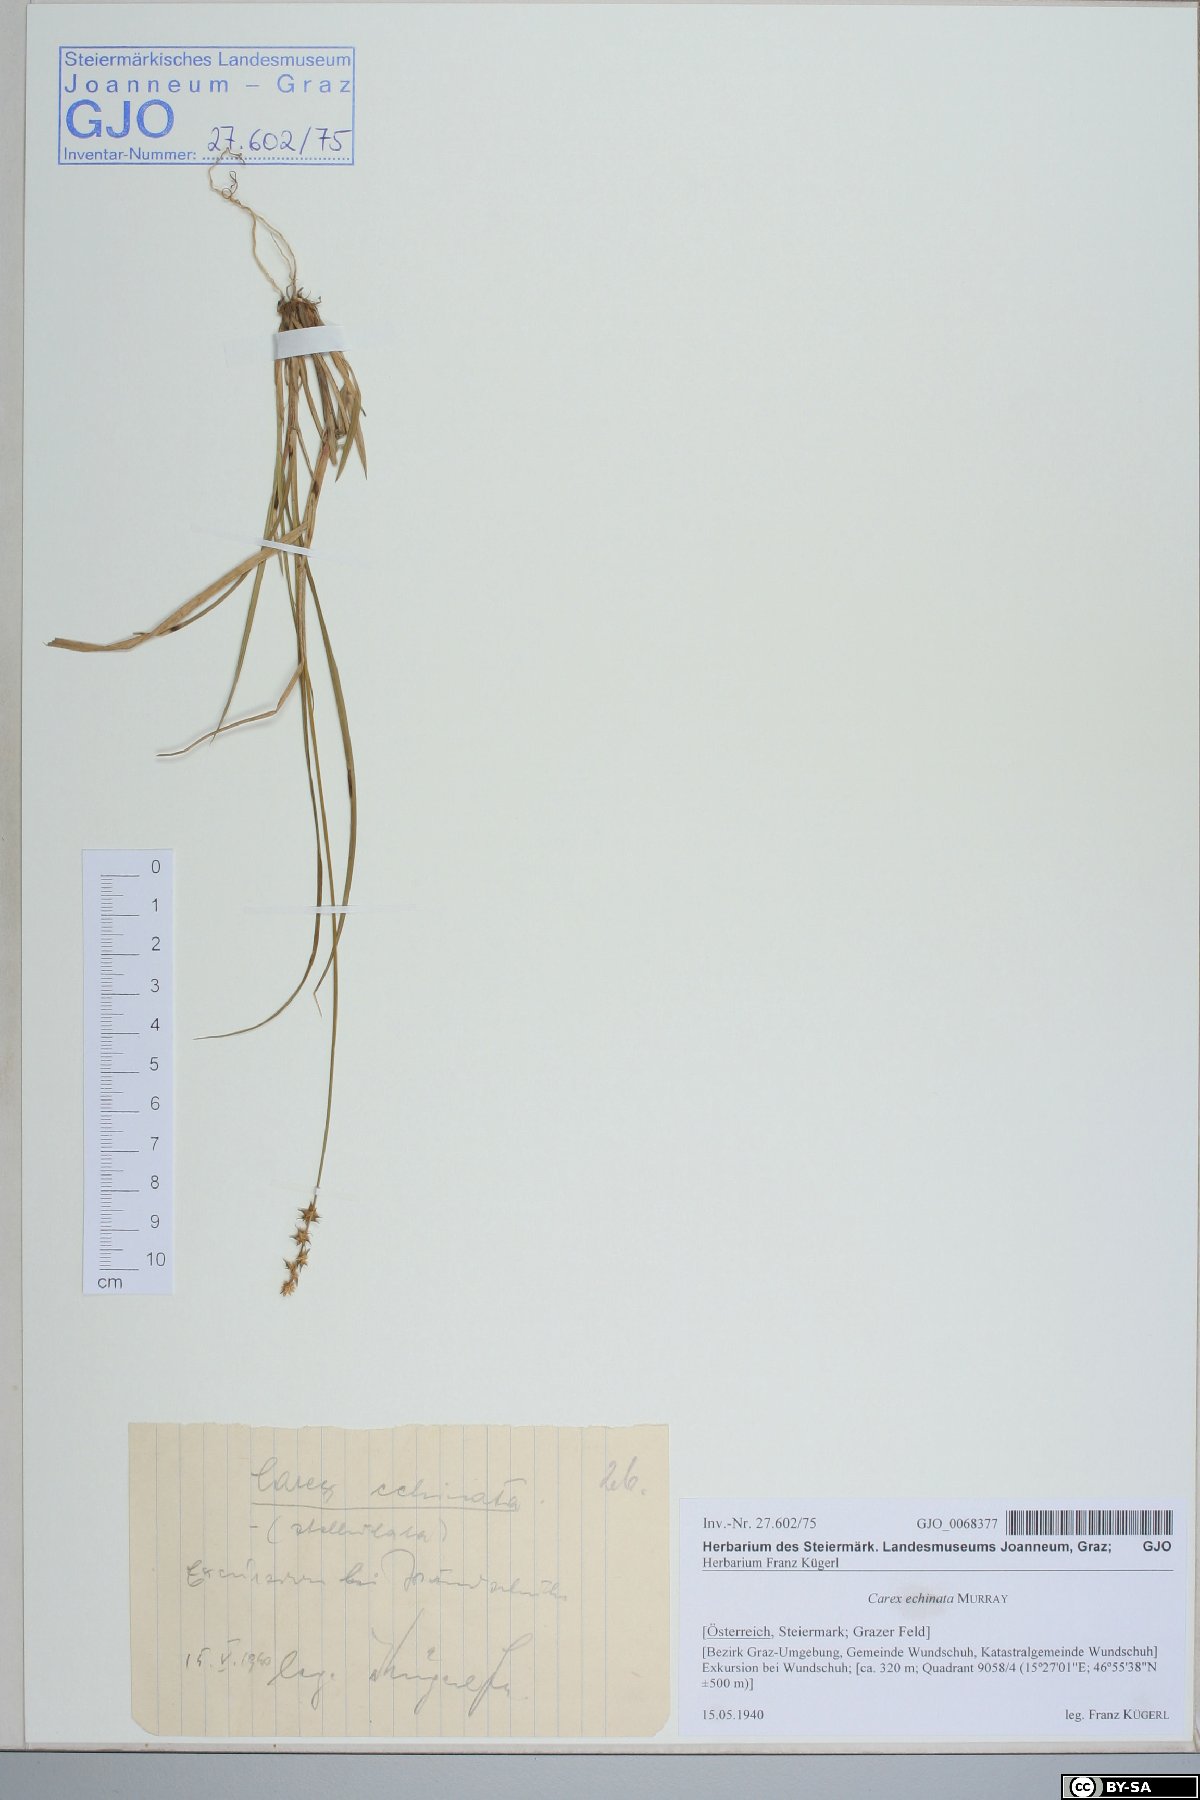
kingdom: Plantae
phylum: Tracheophyta
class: Liliopsida
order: Poales
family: Cyperaceae
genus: Carex
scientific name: Carex echinata
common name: Star sedge
